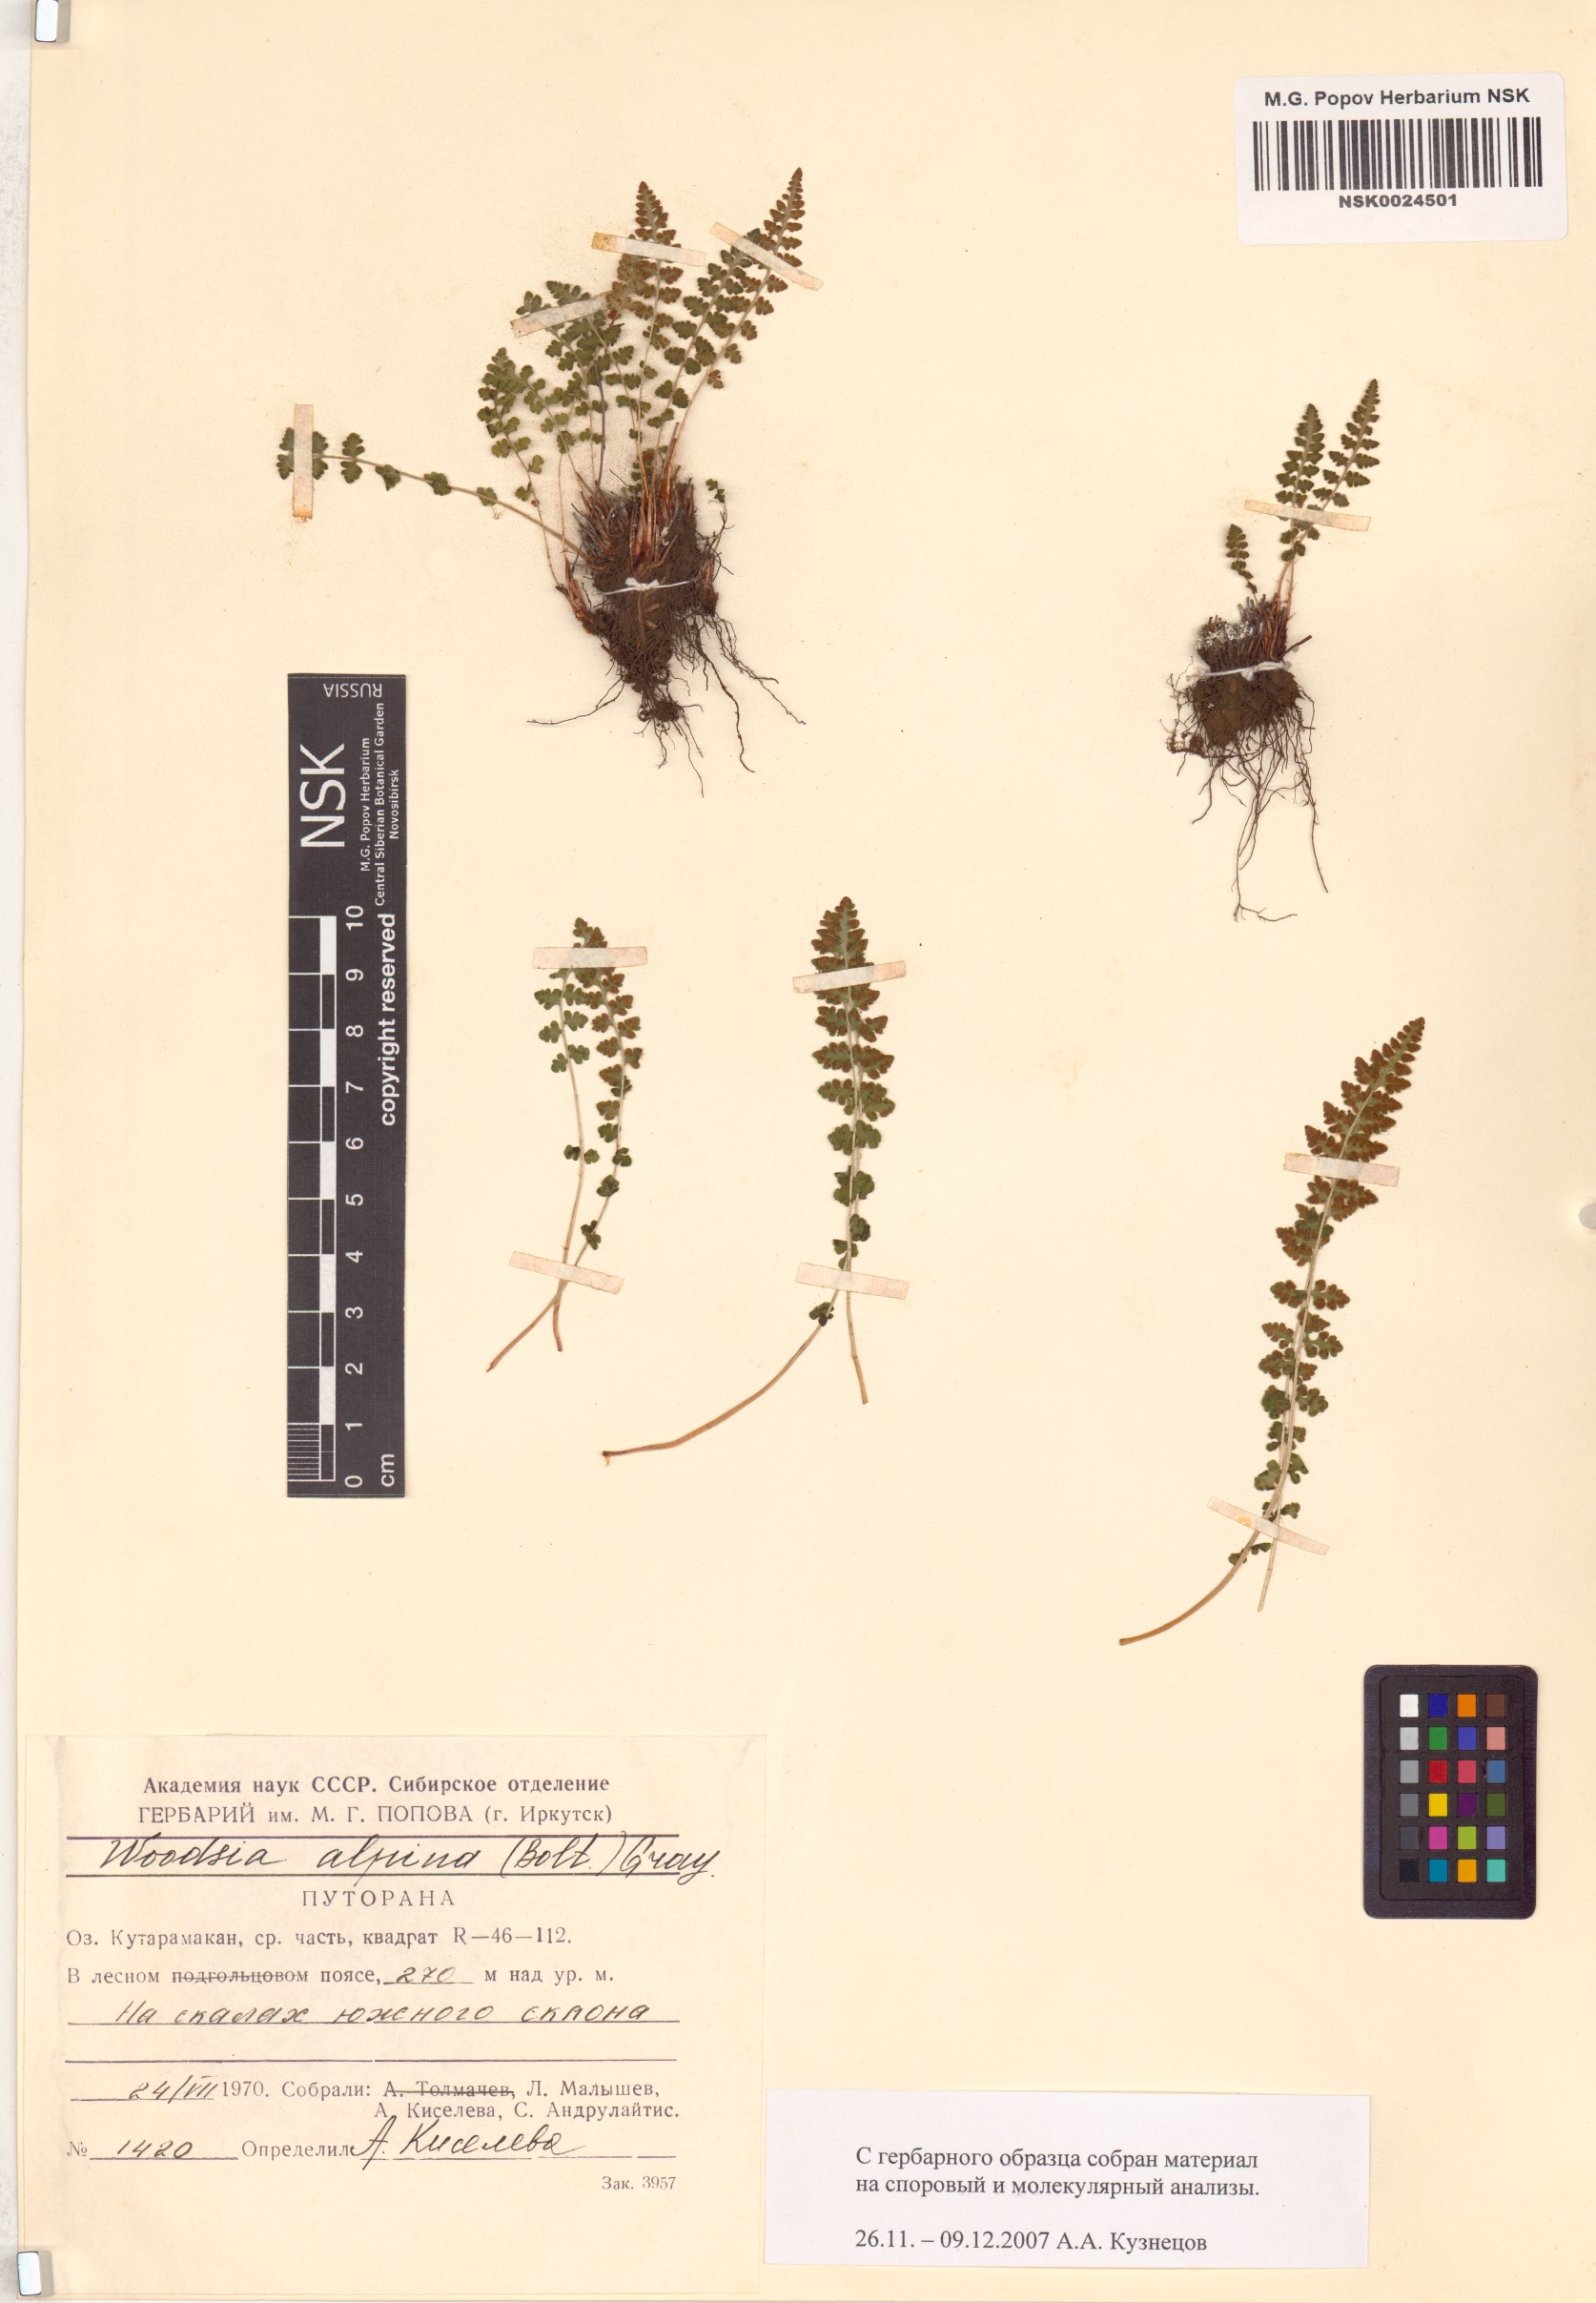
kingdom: Plantae
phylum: Tracheophyta
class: Polypodiopsida
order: Polypodiales
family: Woodsiaceae
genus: Woodsia
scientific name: Woodsia alpina
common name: Alpine woodsia
